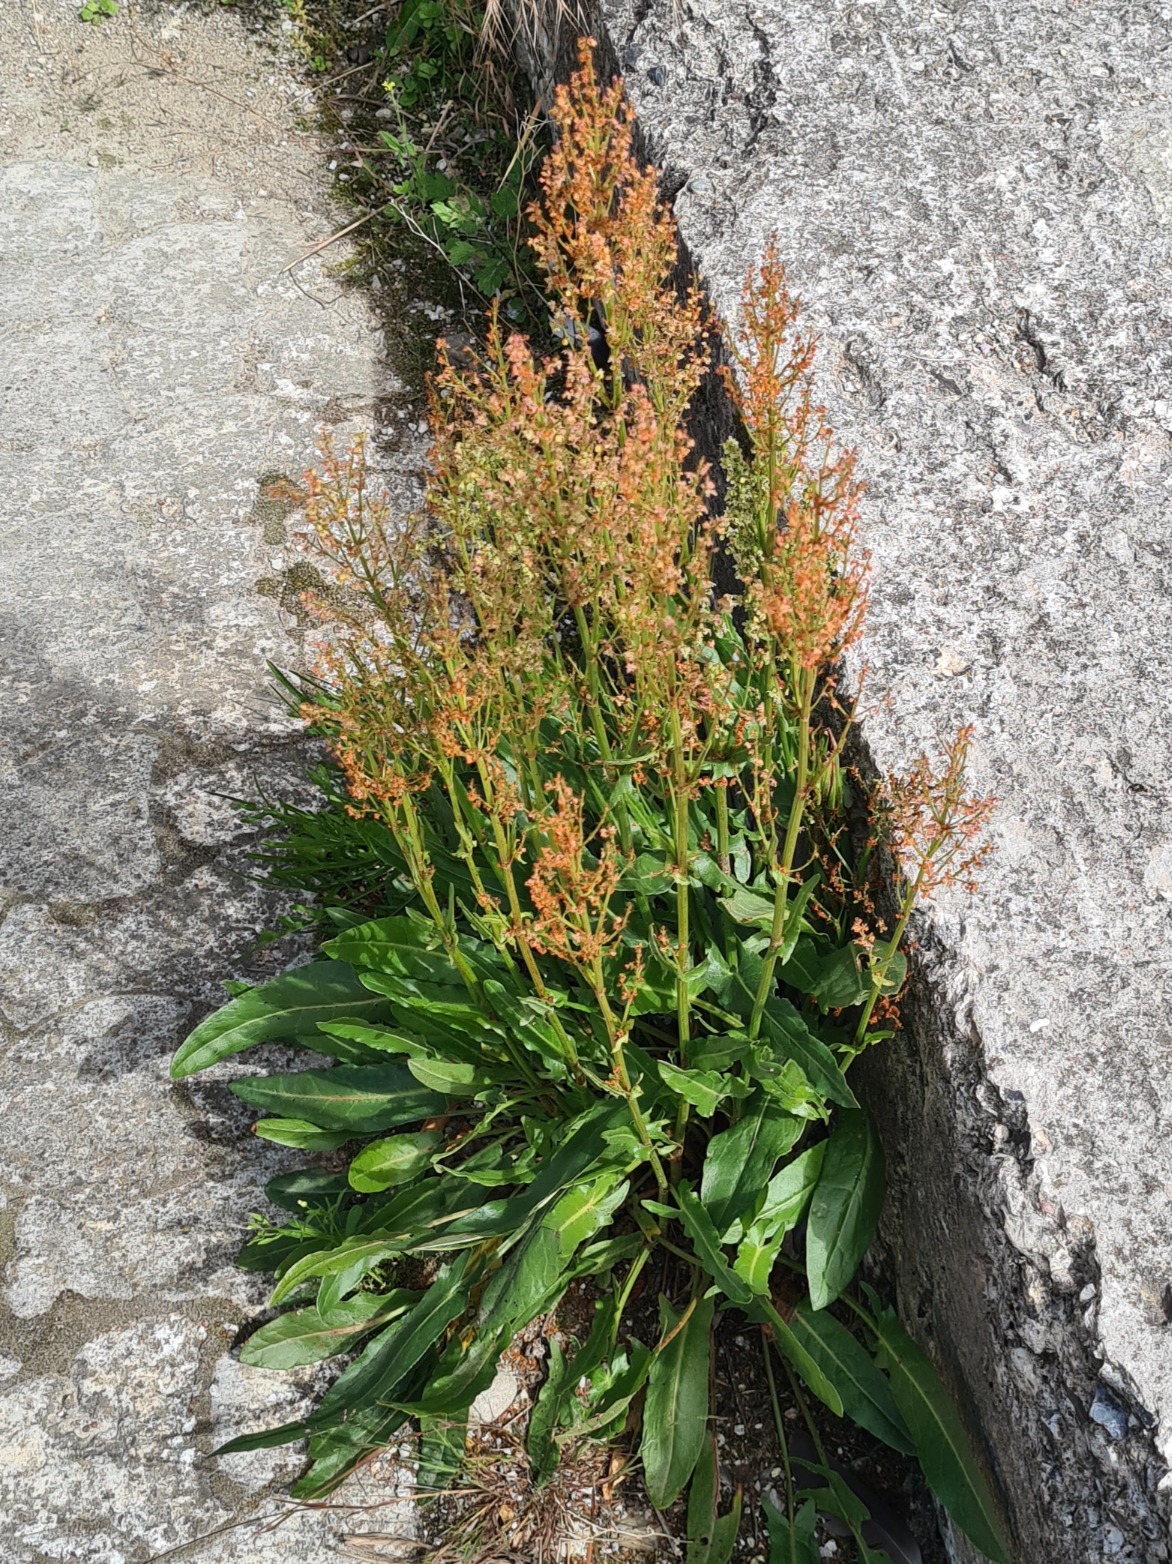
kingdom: Plantae
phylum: Tracheophyta
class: Magnoliopsida
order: Caryophyllales
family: Polygonaceae
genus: Rumex
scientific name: Rumex thyrsiflorus
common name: Dusk-syre
